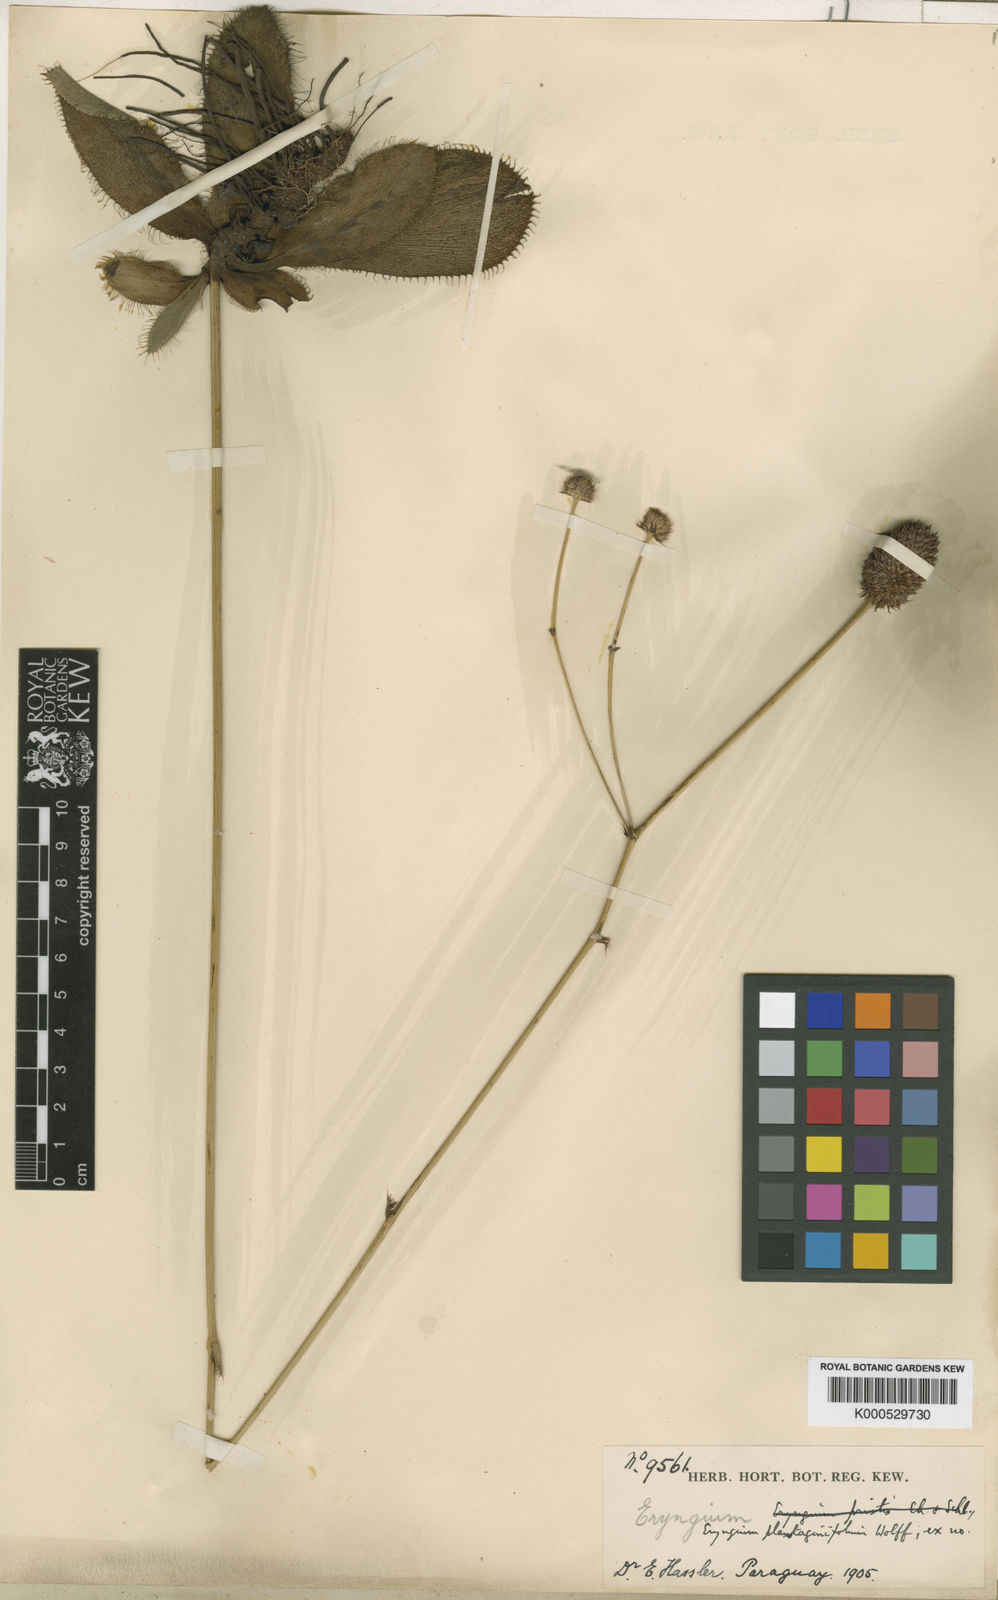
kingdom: Plantae
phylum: Tracheophyta
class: Magnoliopsida
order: Apiales
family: Apiaceae
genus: Eryngium
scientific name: Eryngium plantaginifolium
